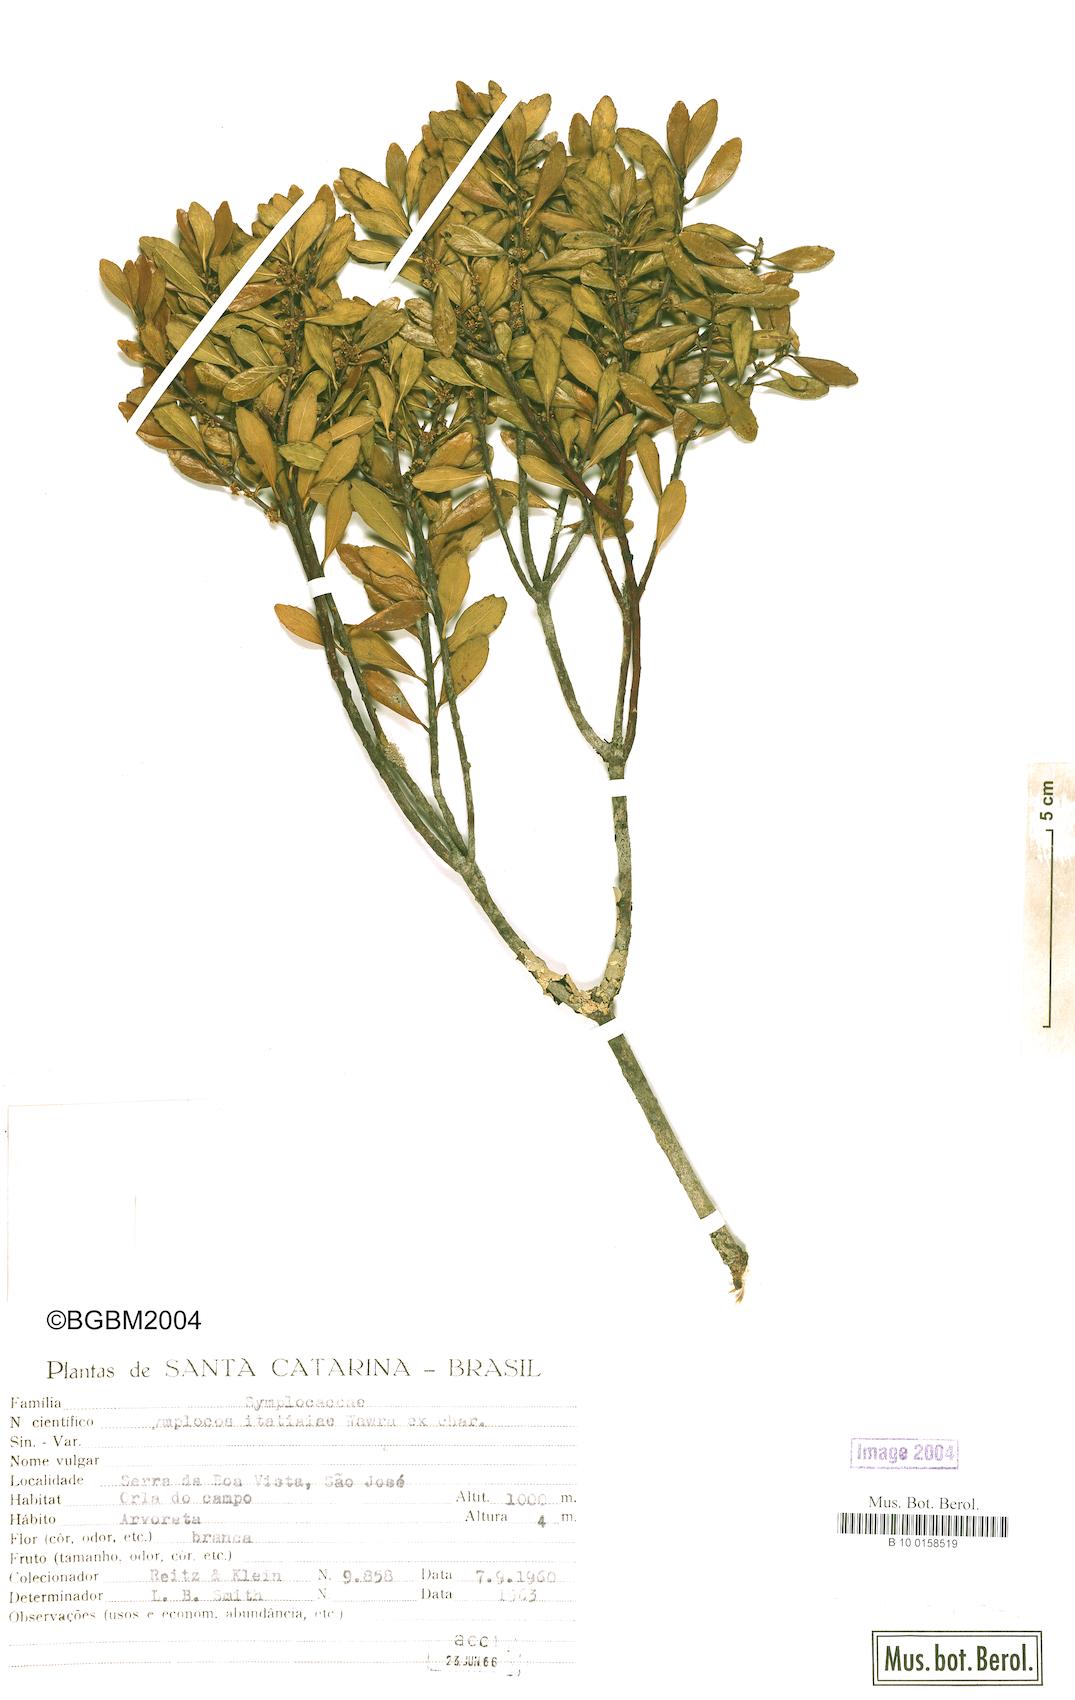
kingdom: Plantae
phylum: Tracheophyta
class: Magnoliopsida
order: Ericales
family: Symplocaceae
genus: Symplocos
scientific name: Symplocos pentandra
